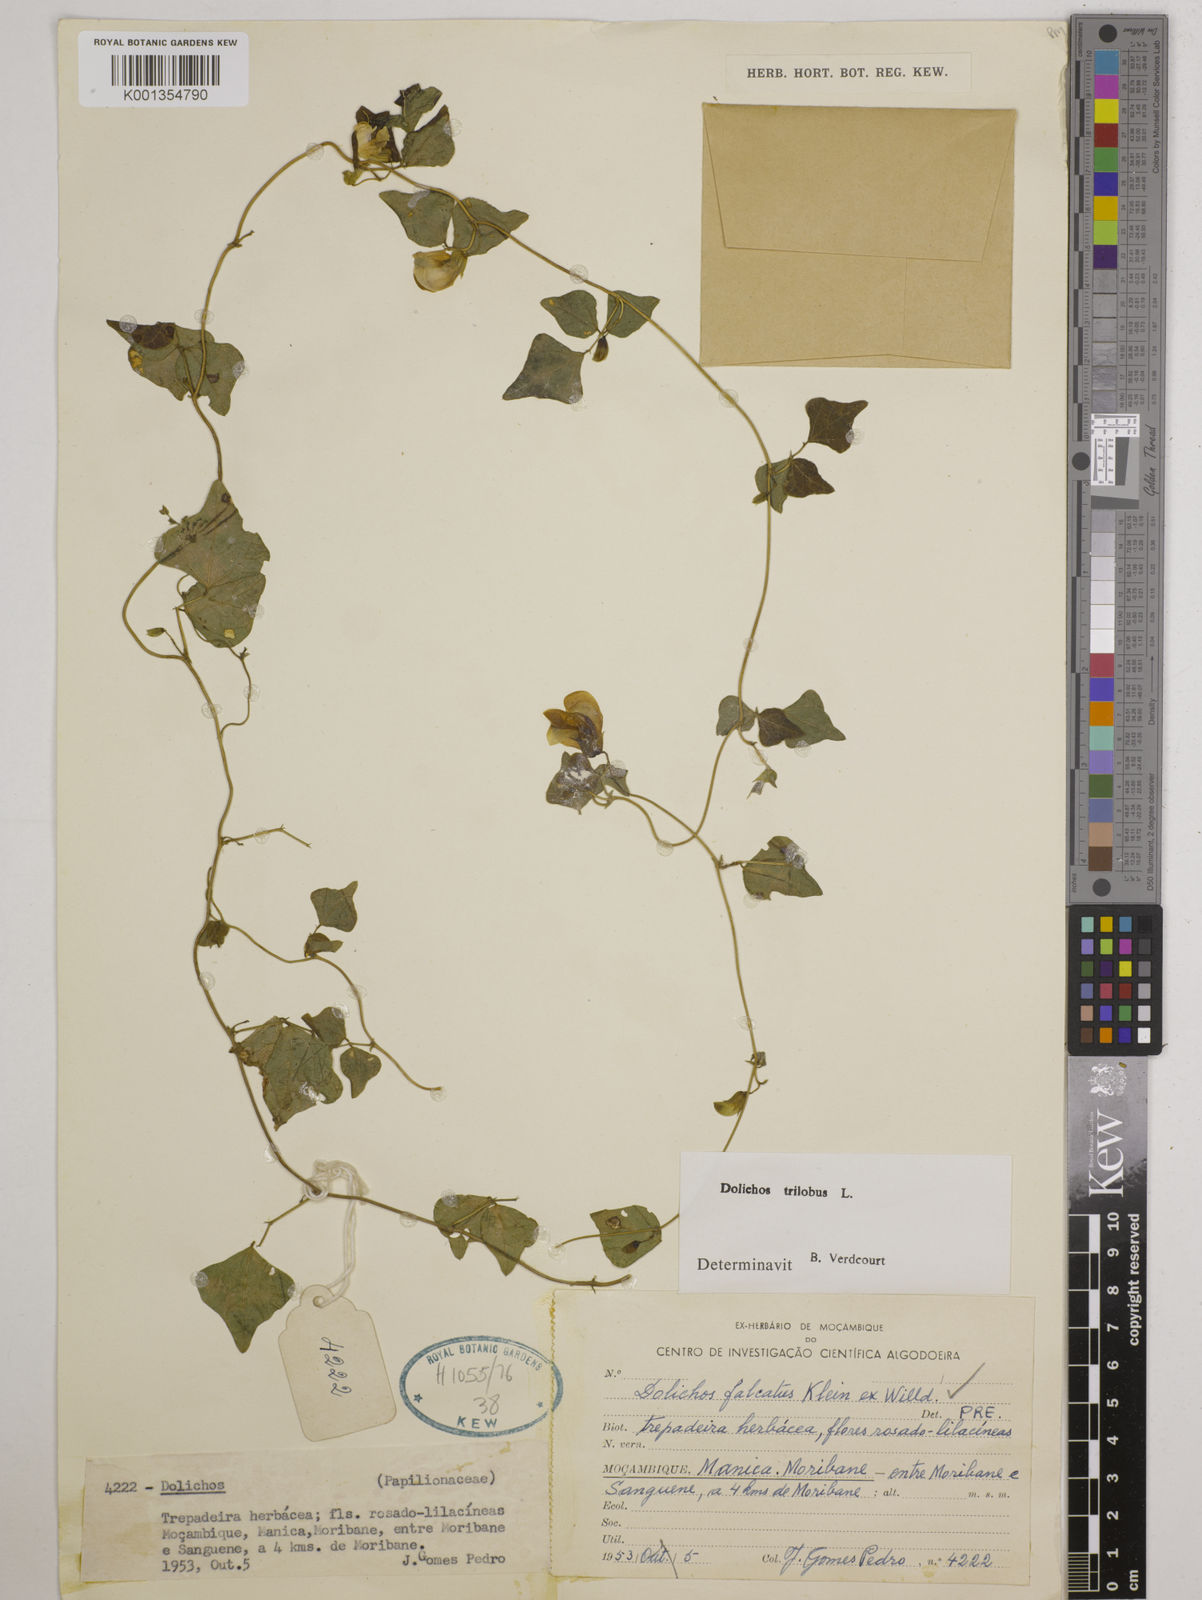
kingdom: Plantae
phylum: Tracheophyta
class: Magnoliopsida
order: Fabales
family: Fabaceae
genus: Dolichos
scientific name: Dolichos
